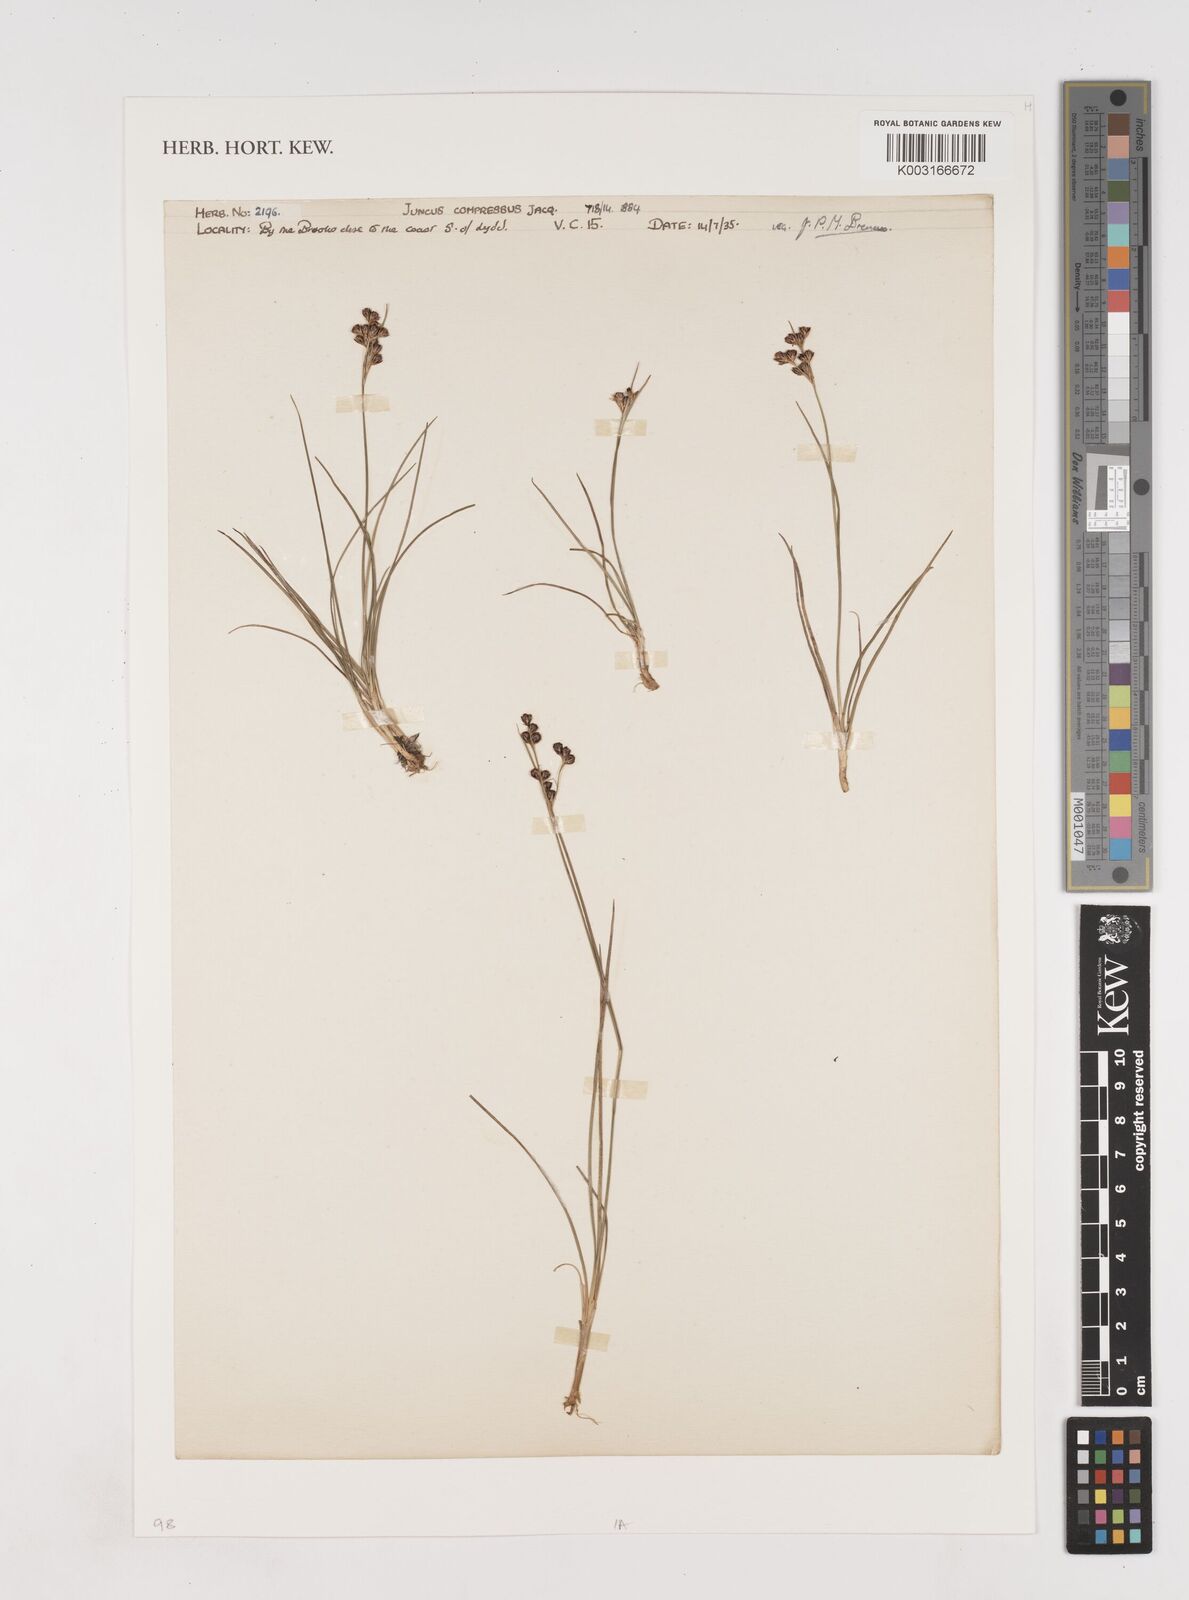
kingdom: Plantae
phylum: Tracheophyta
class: Liliopsida
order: Poales
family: Juncaceae
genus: Juncus
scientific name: Juncus compressus
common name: Round-fruited rush
